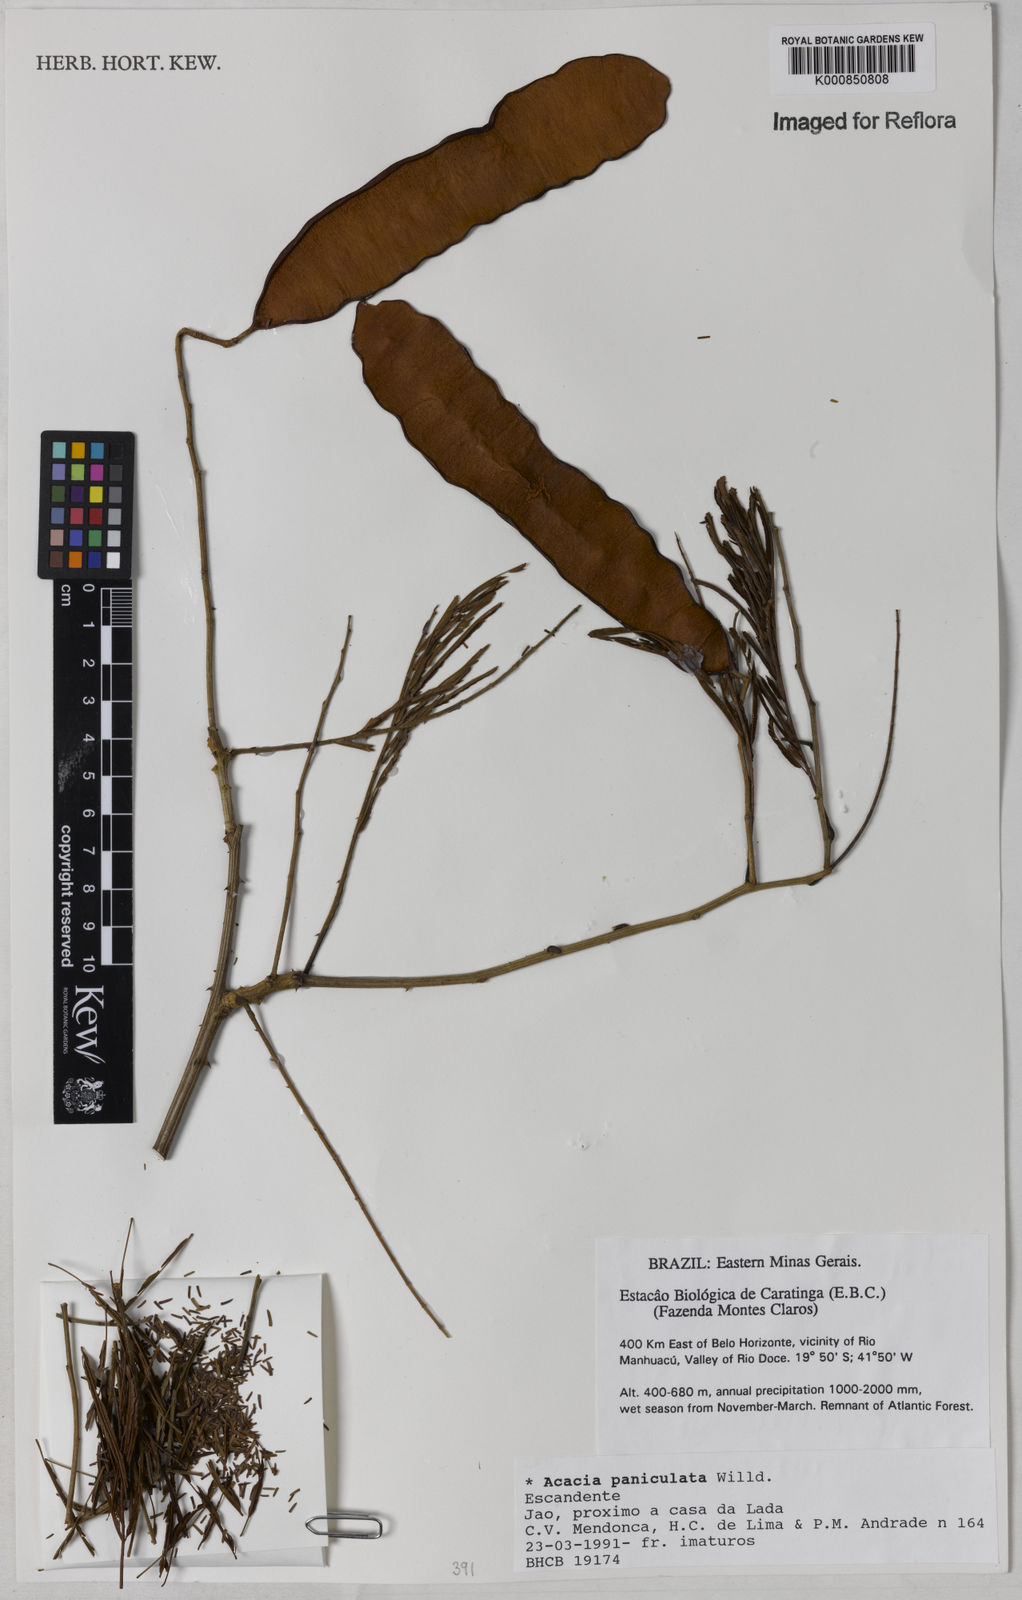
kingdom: Plantae
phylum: Tracheophyta
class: Magnoliopsida
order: Fabales
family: Fabaceae
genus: Senegalia
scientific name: Senegalia tenuifolia
